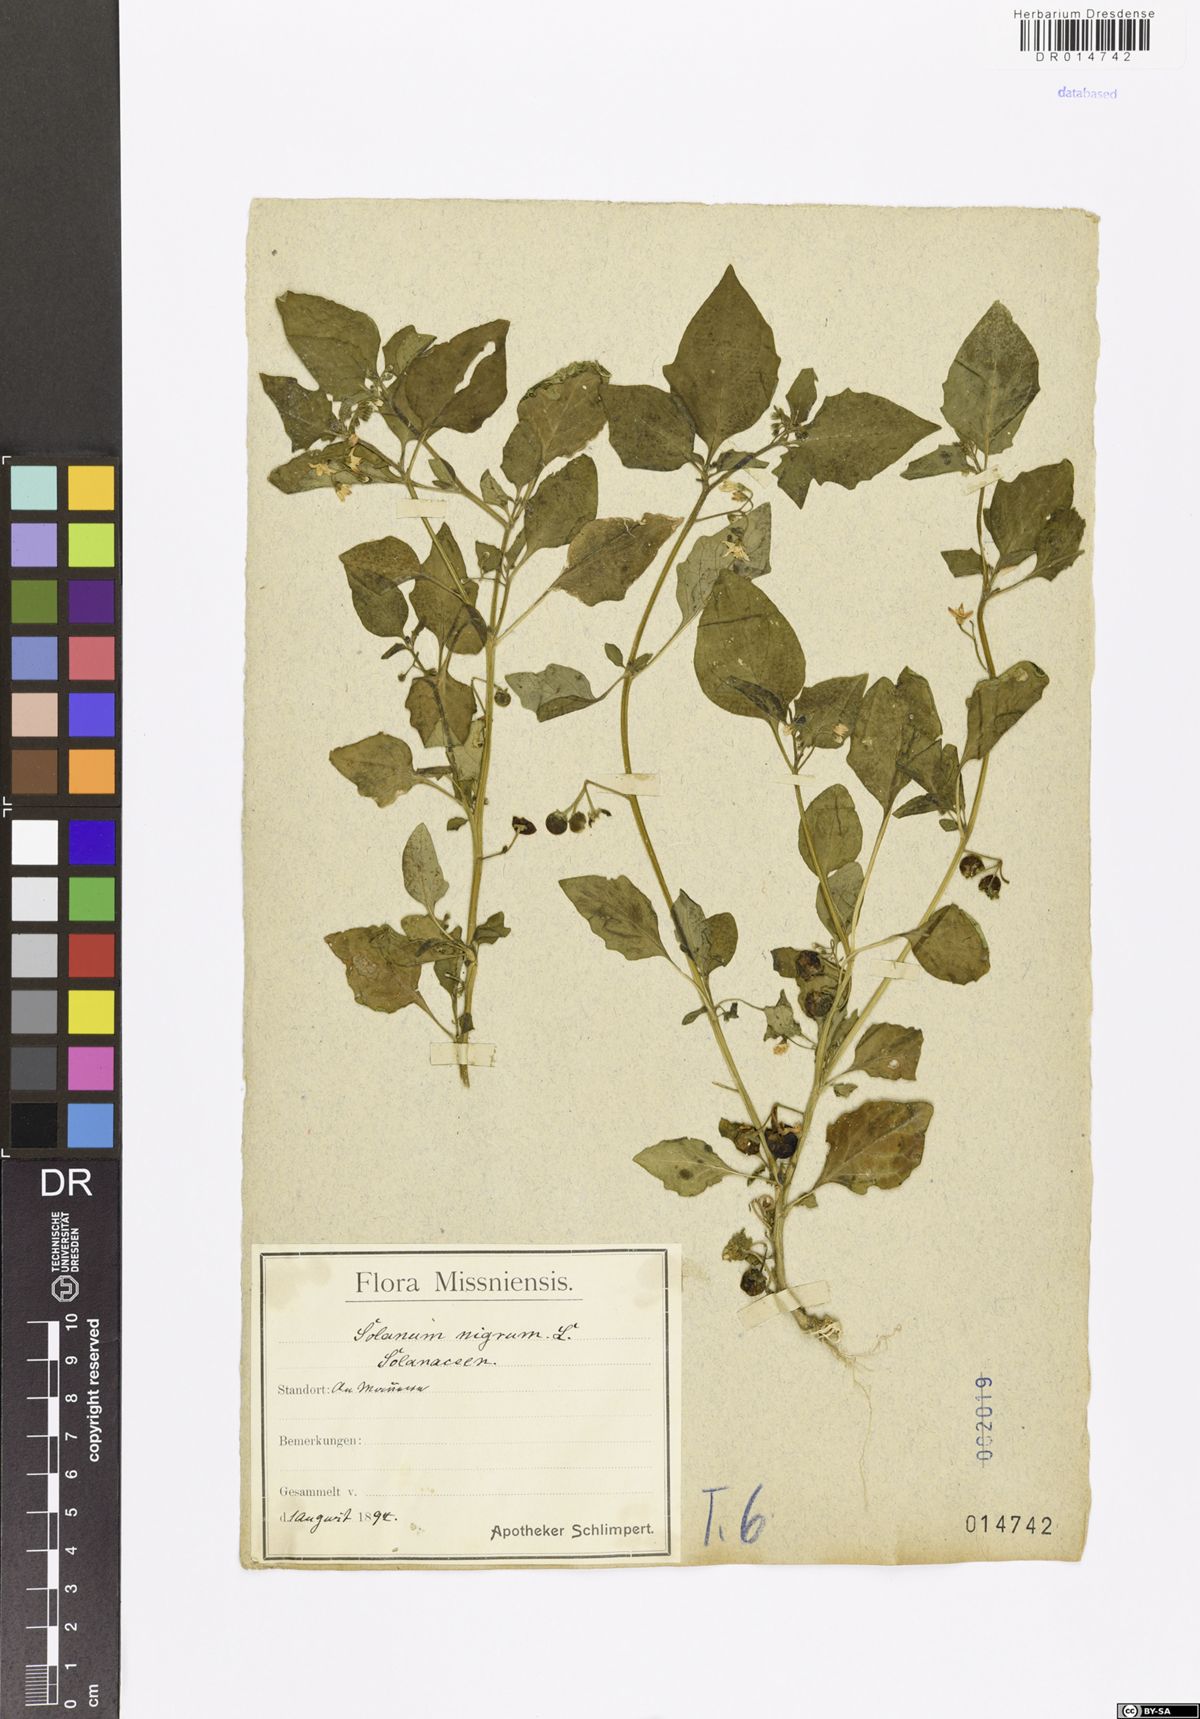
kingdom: Plantae
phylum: Tracheophyta
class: Magnoliopsida
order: Solanales
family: Solanaceae
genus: Solanum
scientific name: Solanum nigrum
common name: Black nightshade
